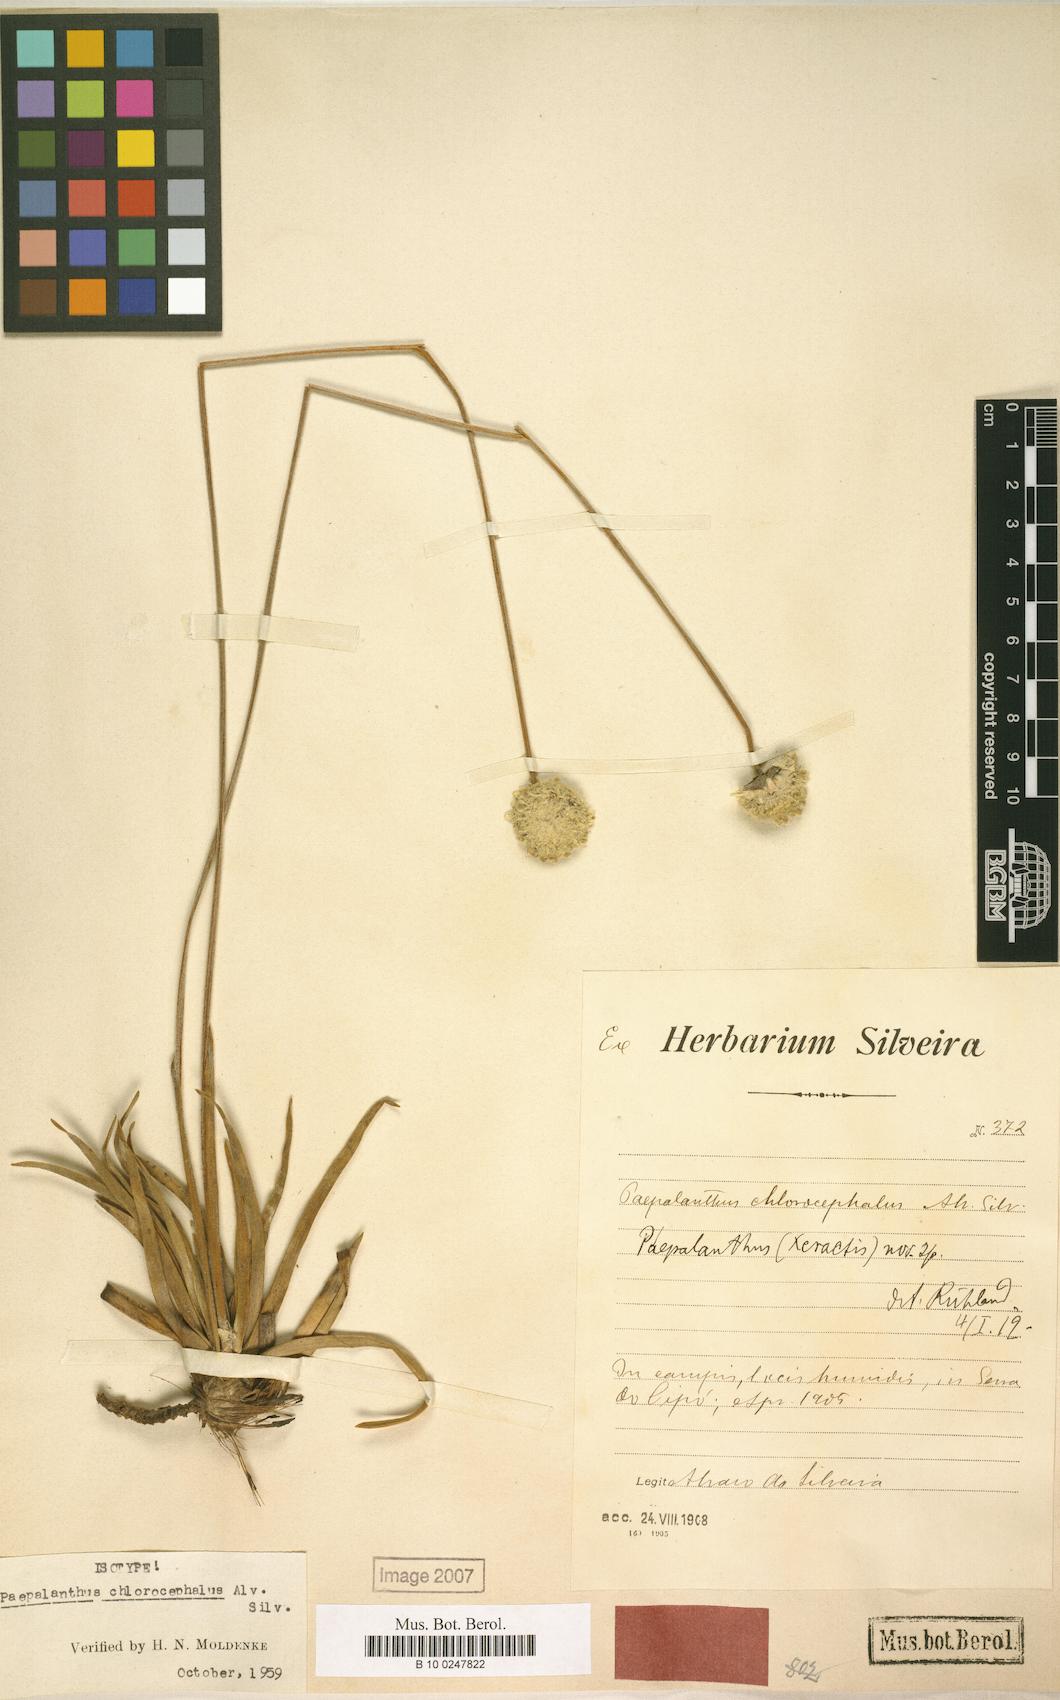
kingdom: Plantae
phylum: Tracheophyta
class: Liliopsida
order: Poales
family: Eriocaulaceae
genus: Paepalanthus
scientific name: Paepalanthus chlorocephalus
